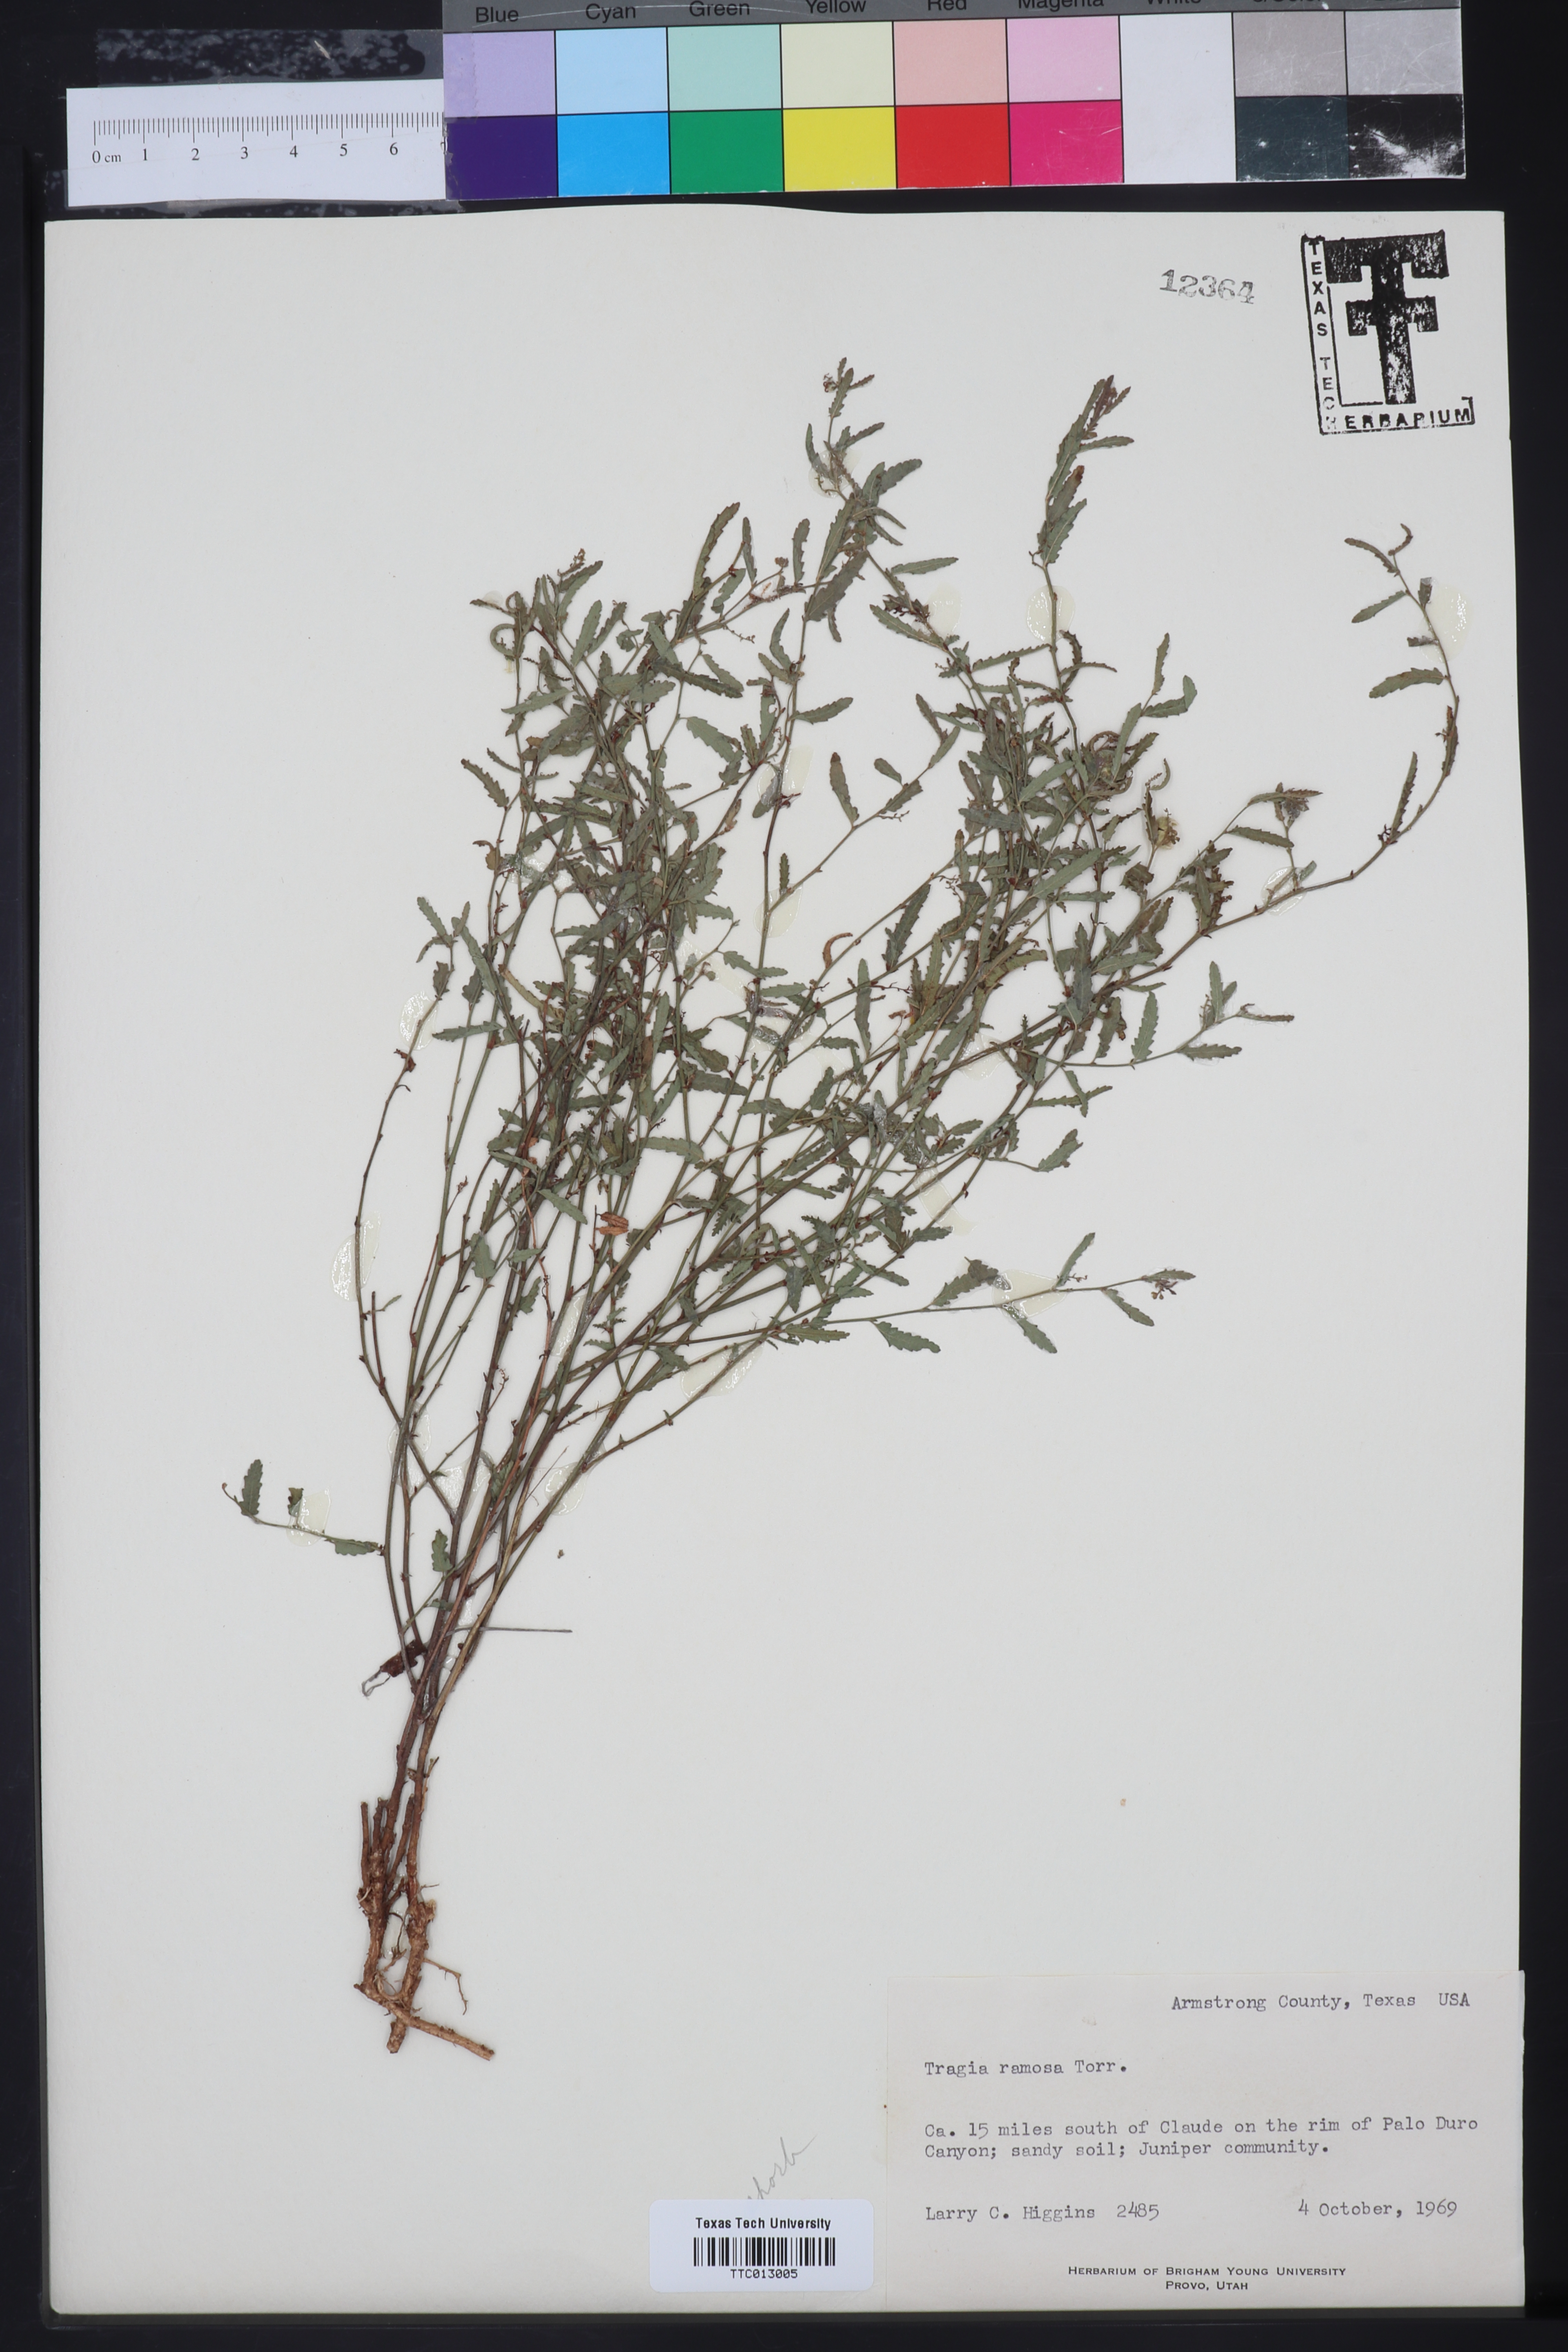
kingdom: Plantae
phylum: Tracheophyta
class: Magnoliopsida
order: Malpighiales
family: Euphorbiaceae
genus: Tragia
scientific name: Tragia ramosa
